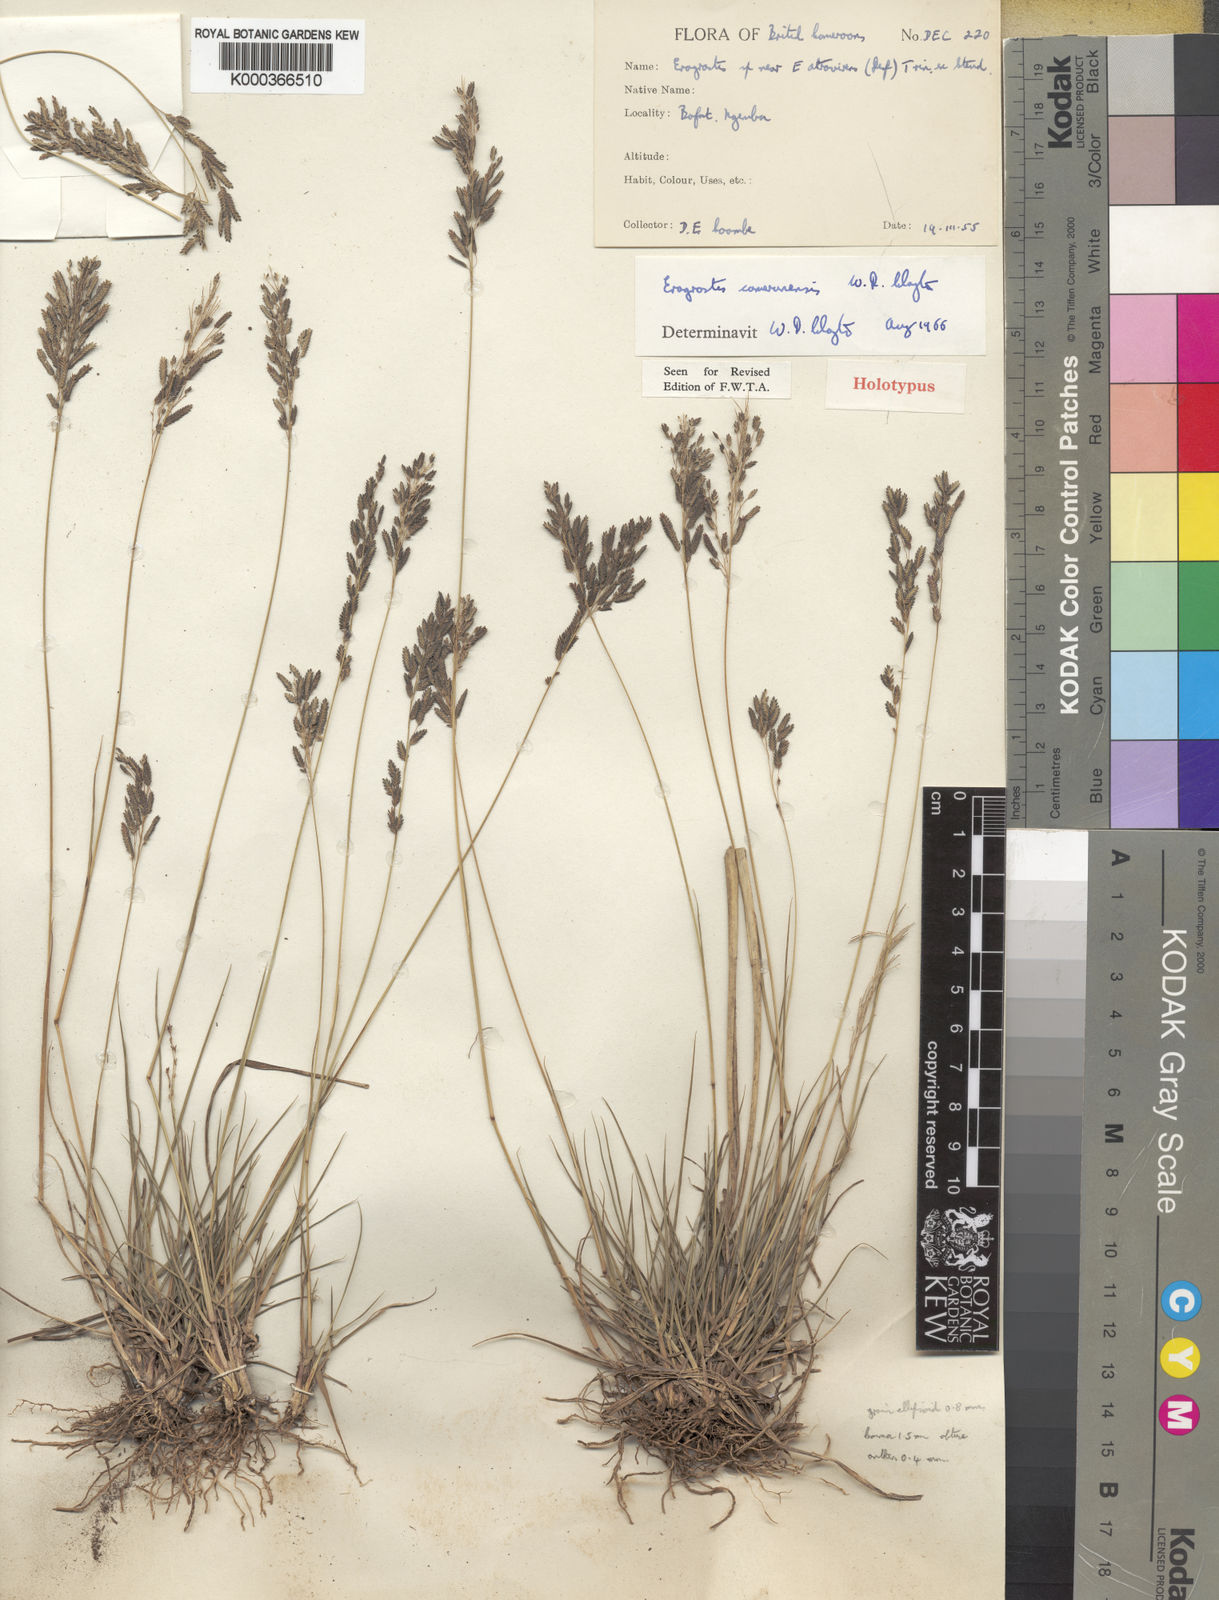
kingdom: Plantae
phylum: Tracheophyta
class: Liliopsida
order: Poales
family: Poaceae
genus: Eragrostis
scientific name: Eragrostis camerunensis
